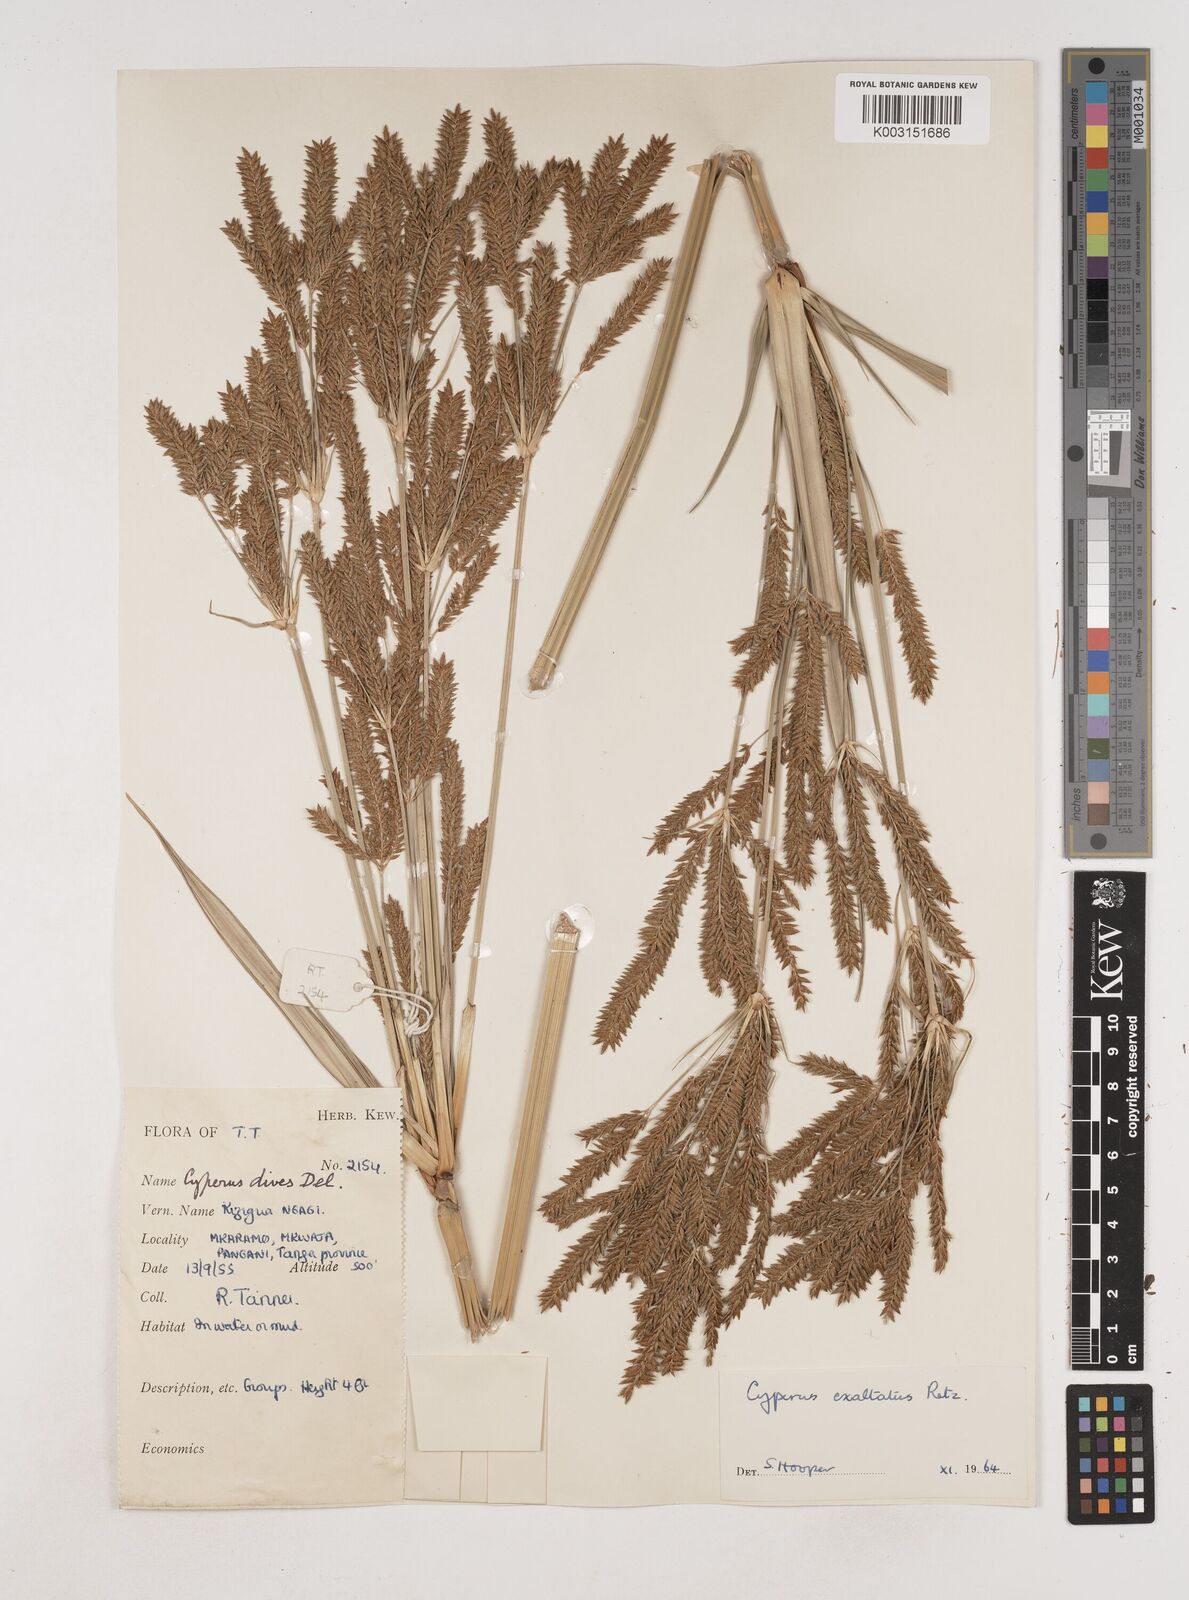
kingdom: Plantae
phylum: Tracheophyta
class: Liliopsida
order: Poales
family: Cyperaceae
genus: Cyperus
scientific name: Cyperus exaltatus
